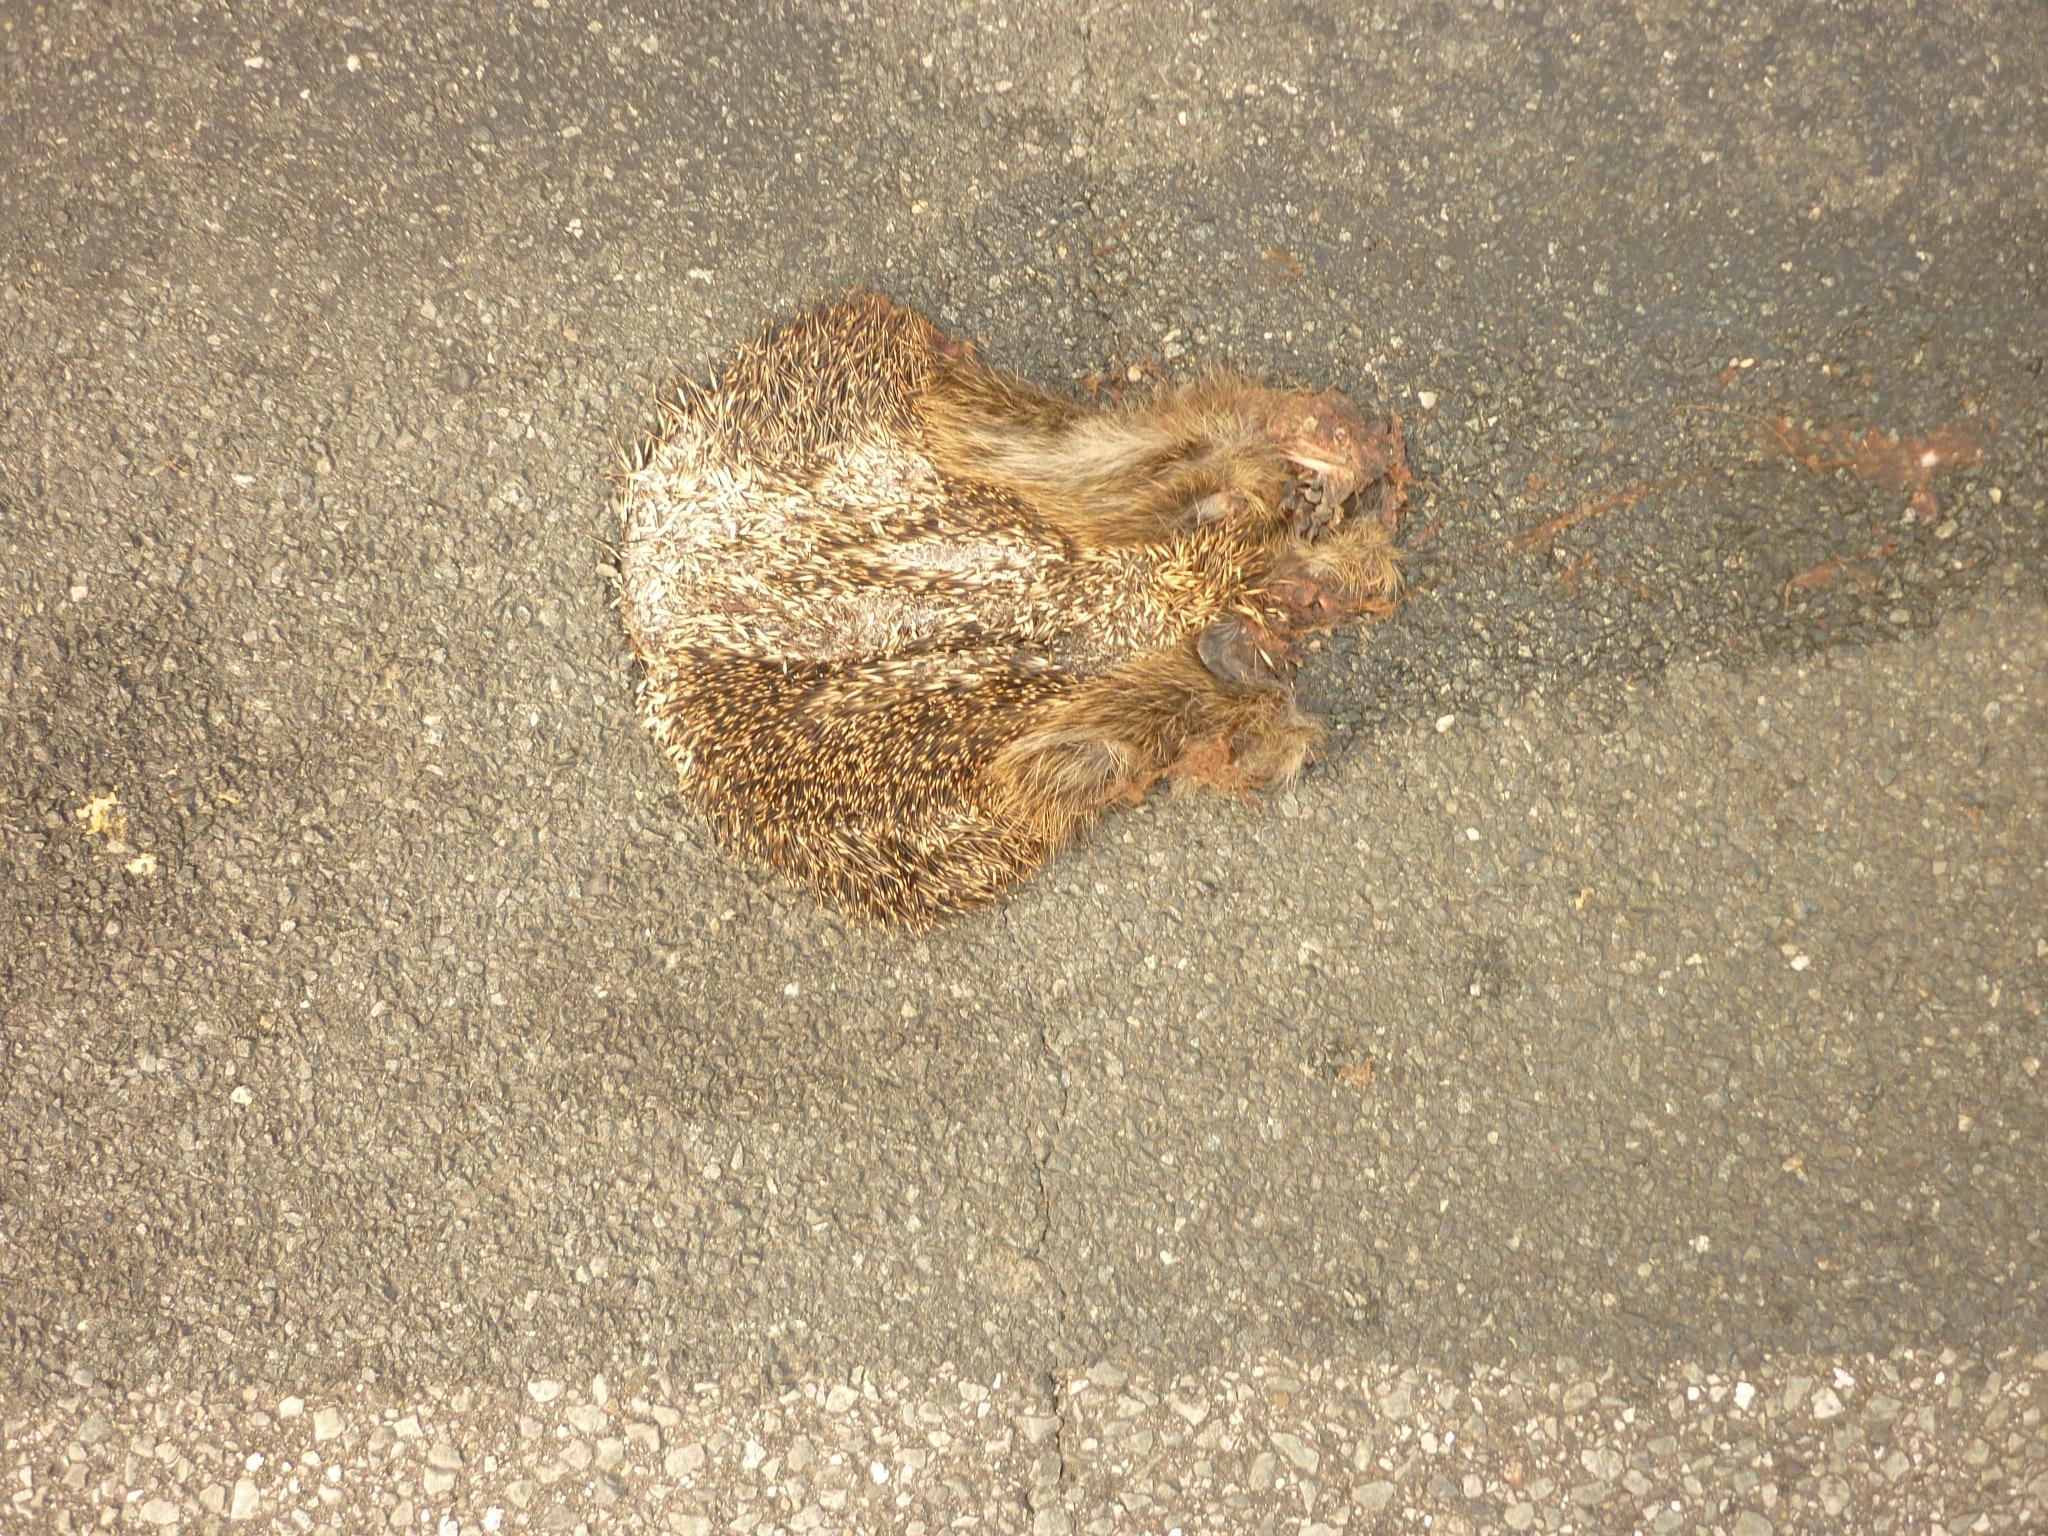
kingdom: Animalia
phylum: Chordata
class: Mammalia
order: Erinaceomorpha
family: Erinaceidae
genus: Erinaceus
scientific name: Erinaceus
